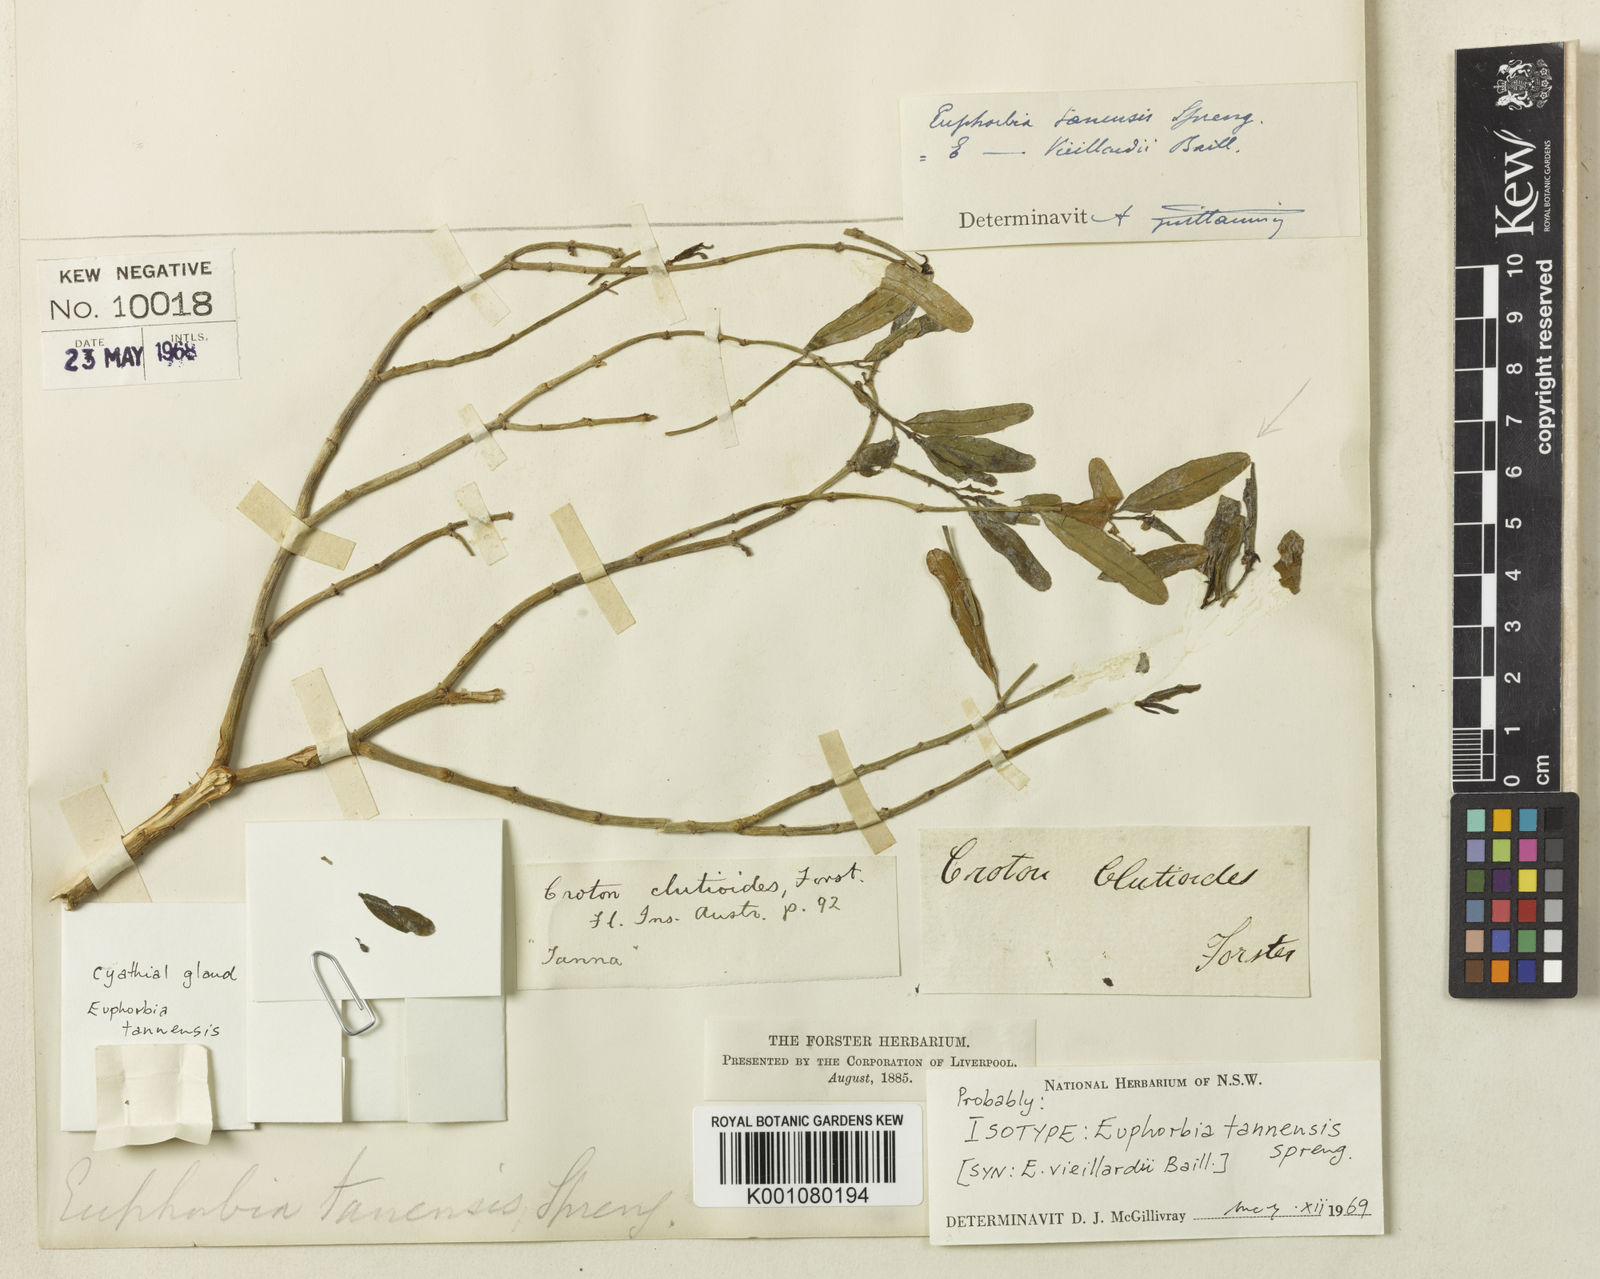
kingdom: Plantae
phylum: Tracheophyta
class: Magnoliopsida
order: Malpighiales
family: Euphorbiaceae
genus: Euphorbia
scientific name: Euphorbia
